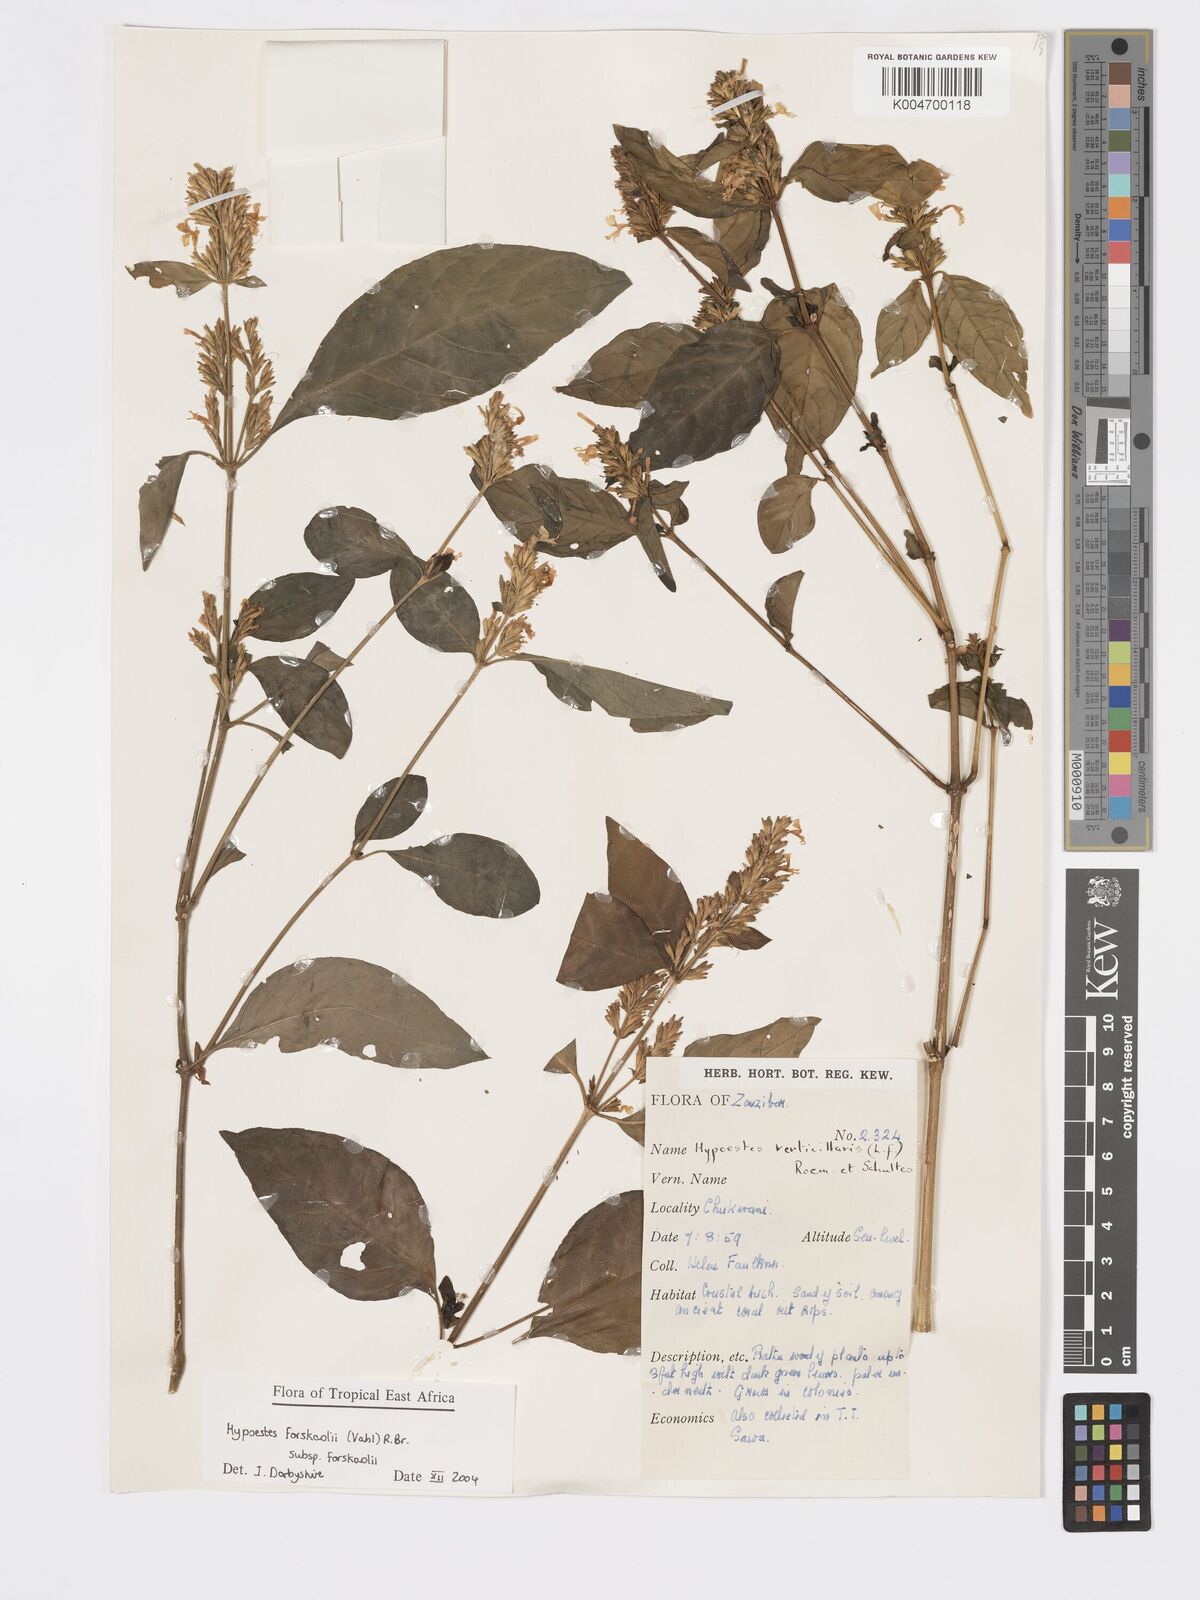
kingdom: Plantae
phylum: Tracheophyta
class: Magnoliopsida
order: Lamiales
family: Acanthaceae
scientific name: Acanthaceae
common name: Acanthaceae
